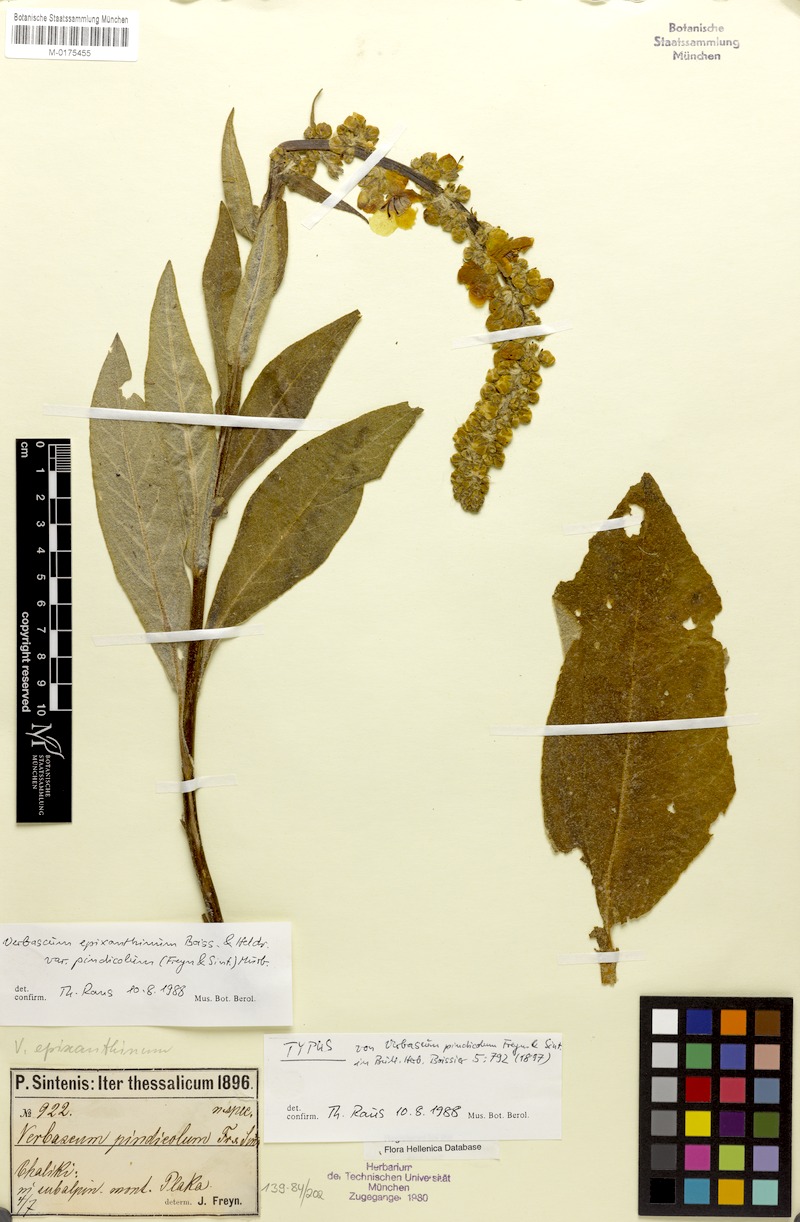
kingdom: Plantae
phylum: Tracheophyta
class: Magnoliopsida
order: Lamiales
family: Scrophulariaceae
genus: Verbascum
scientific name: Verbascum epixanthinum
